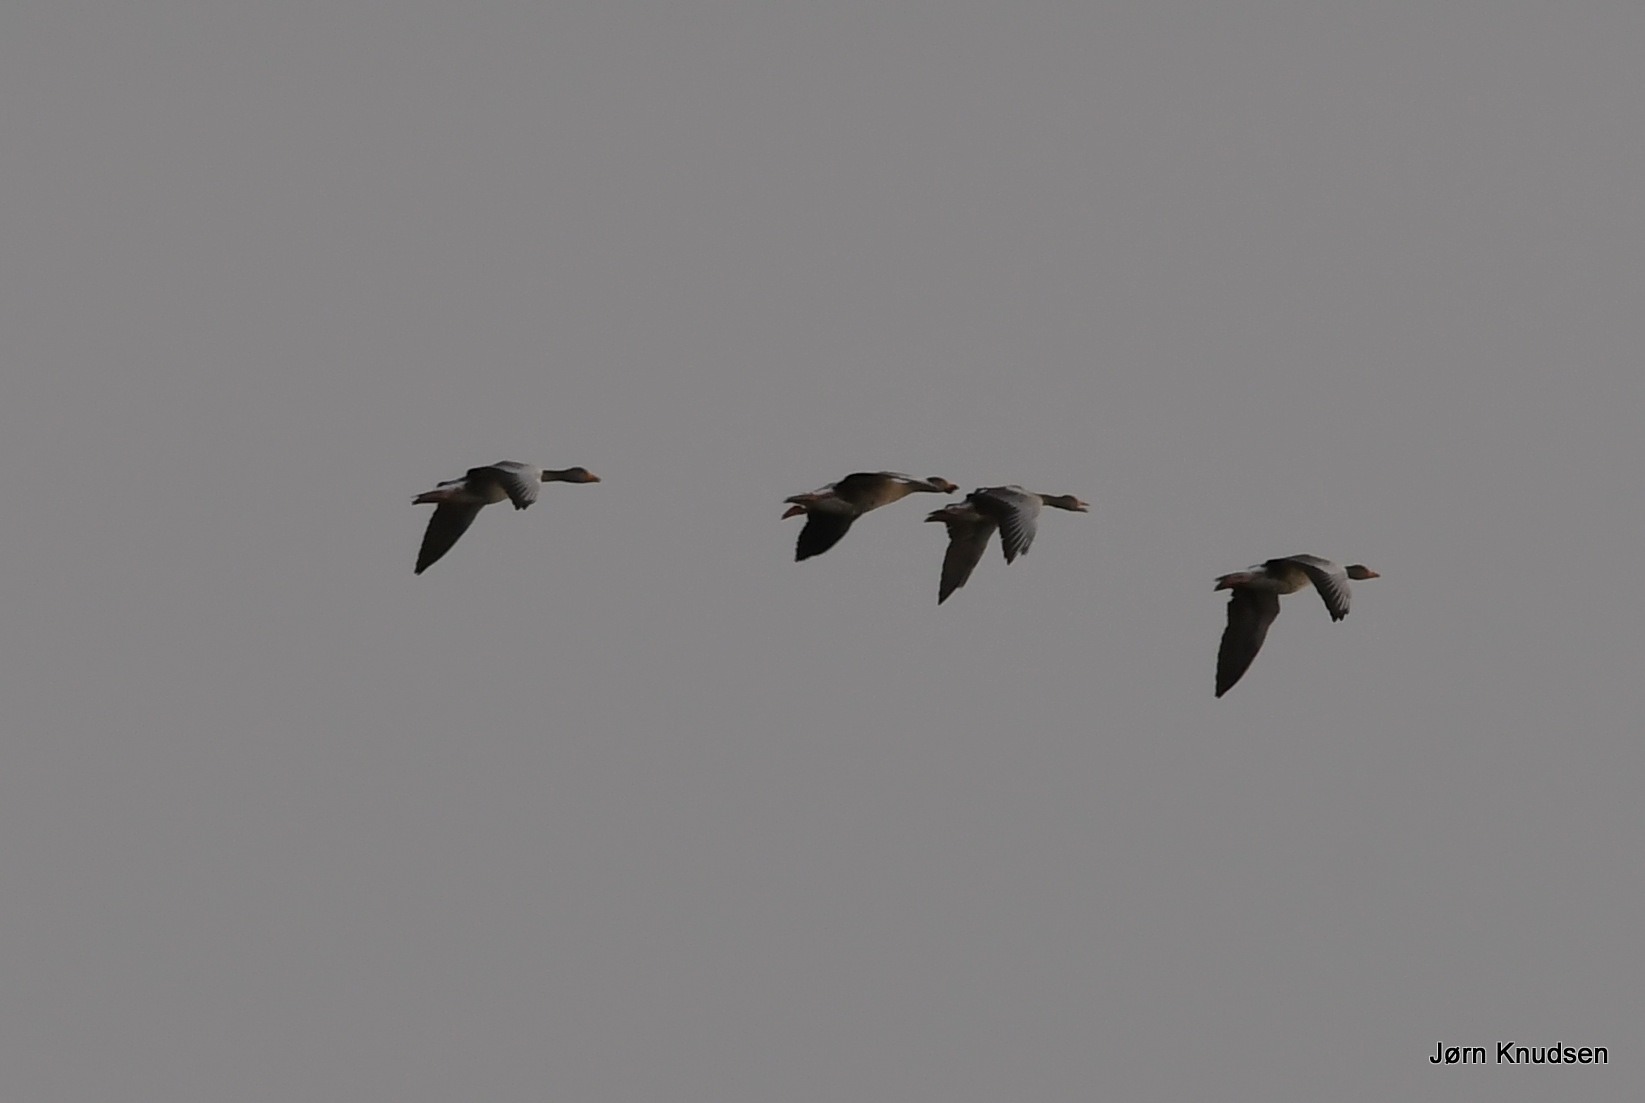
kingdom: Animalia
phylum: Chordata
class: Aves
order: Anseriformes
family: Anatidae
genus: Anser
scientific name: Anser anser
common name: Grågås
